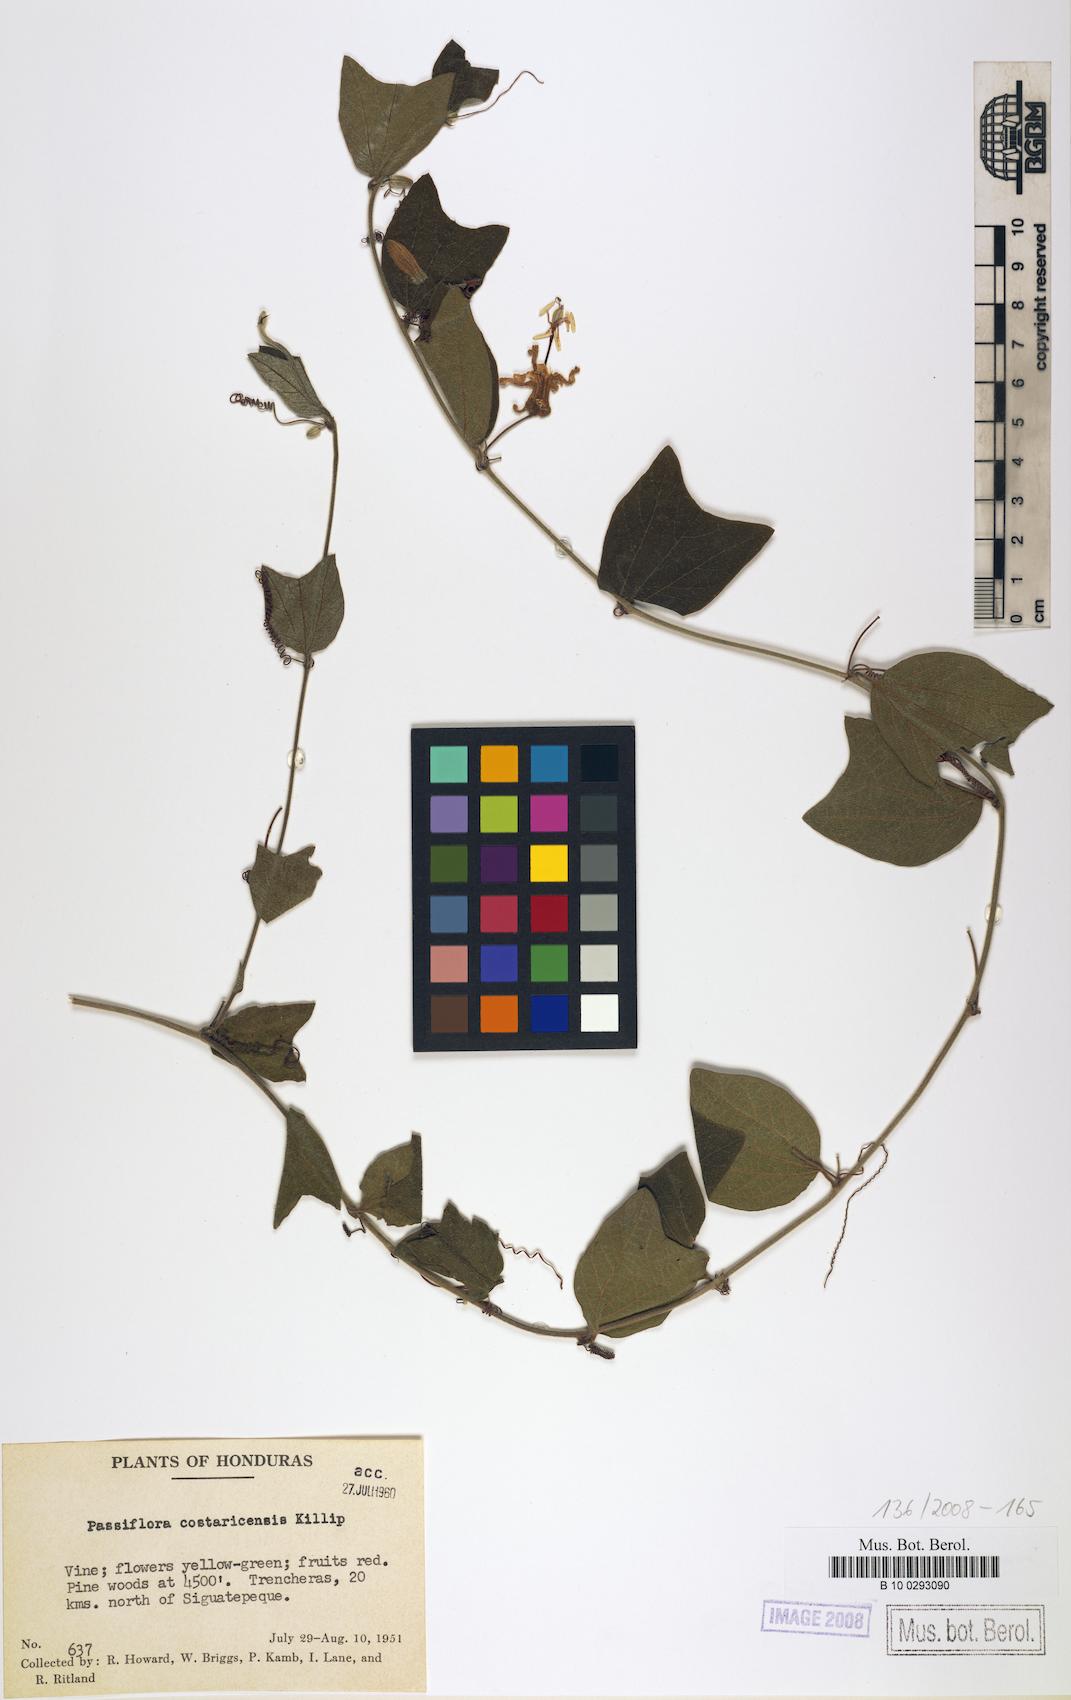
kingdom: Plantae
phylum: Tracheophyta
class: Magnoliopsida
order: Malpighiales
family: Passifloraceae
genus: Passiflora
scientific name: Passiflora costaricensis
